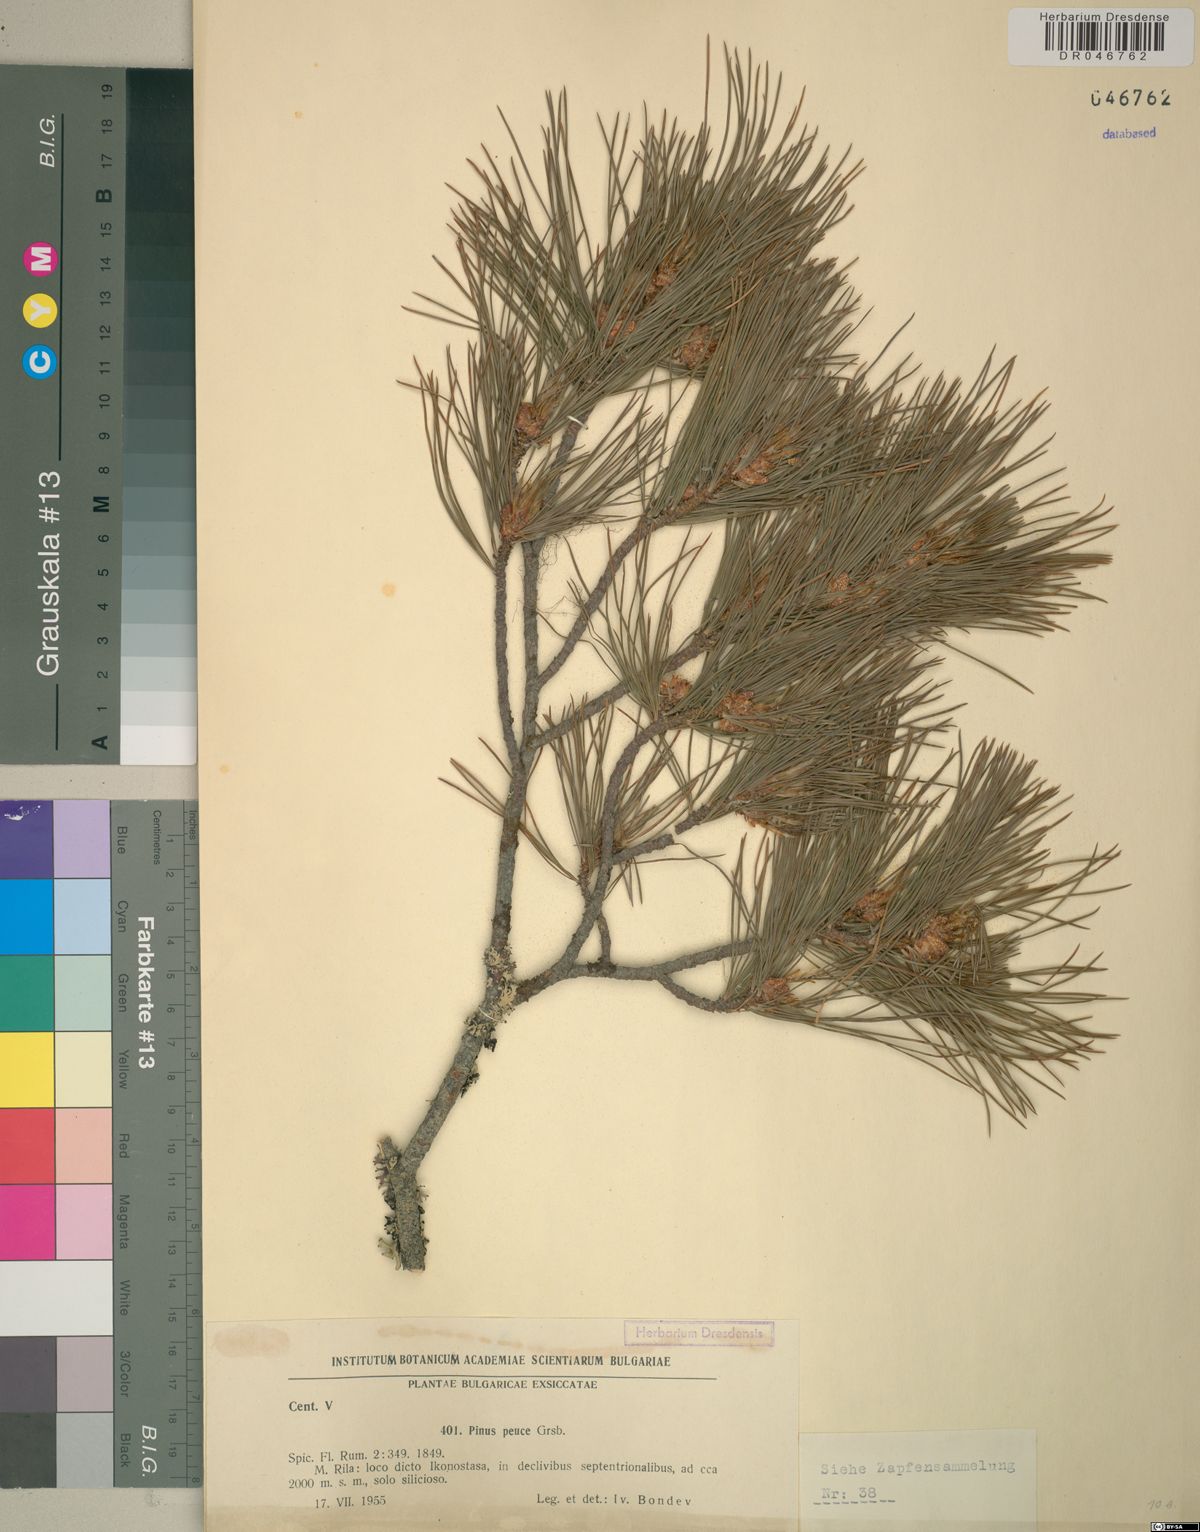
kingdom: Plantae
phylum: Tracheophyta
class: Pinopsida
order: Pinales
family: Pinaceae
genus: Pinus
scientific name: Pinus peuce
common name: Macedonian pine
